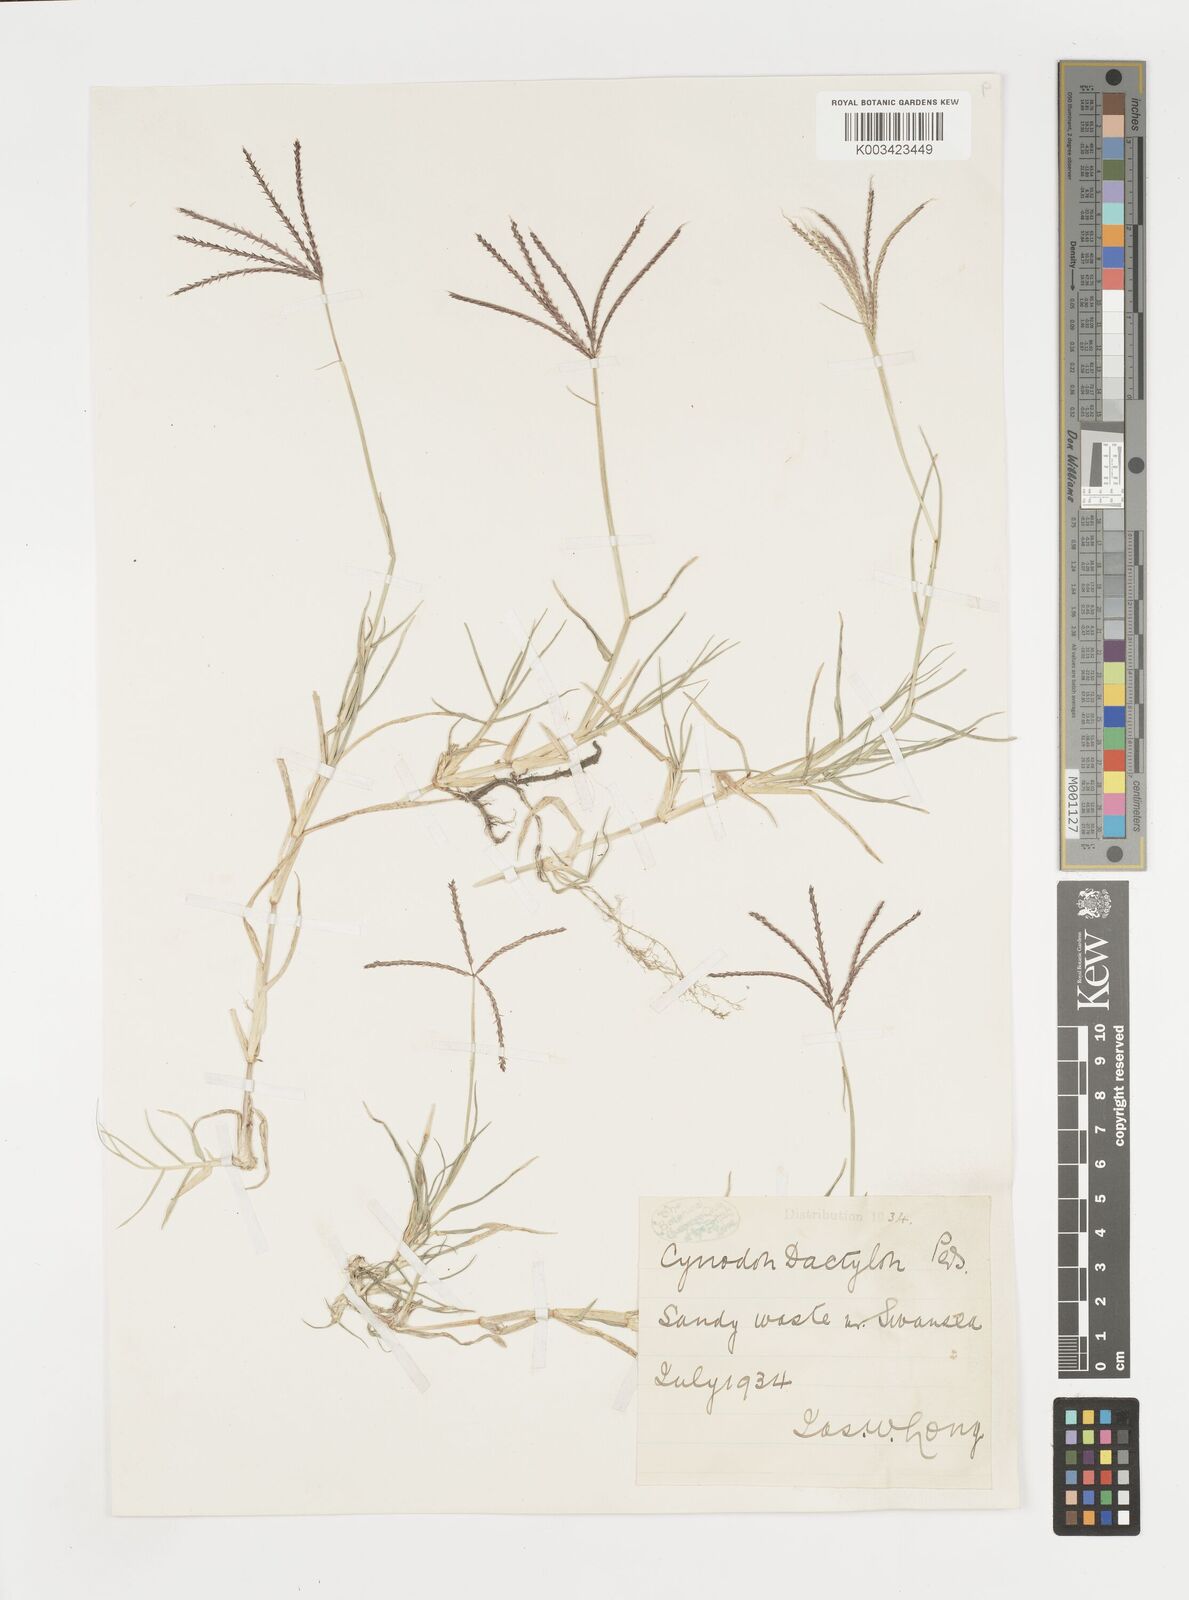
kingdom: Plantae
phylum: Tracheophyta
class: Liliopsida
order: Poales
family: Poaceae
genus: Cynodon
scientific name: Cynodon dactylon
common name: Bermuda grass
